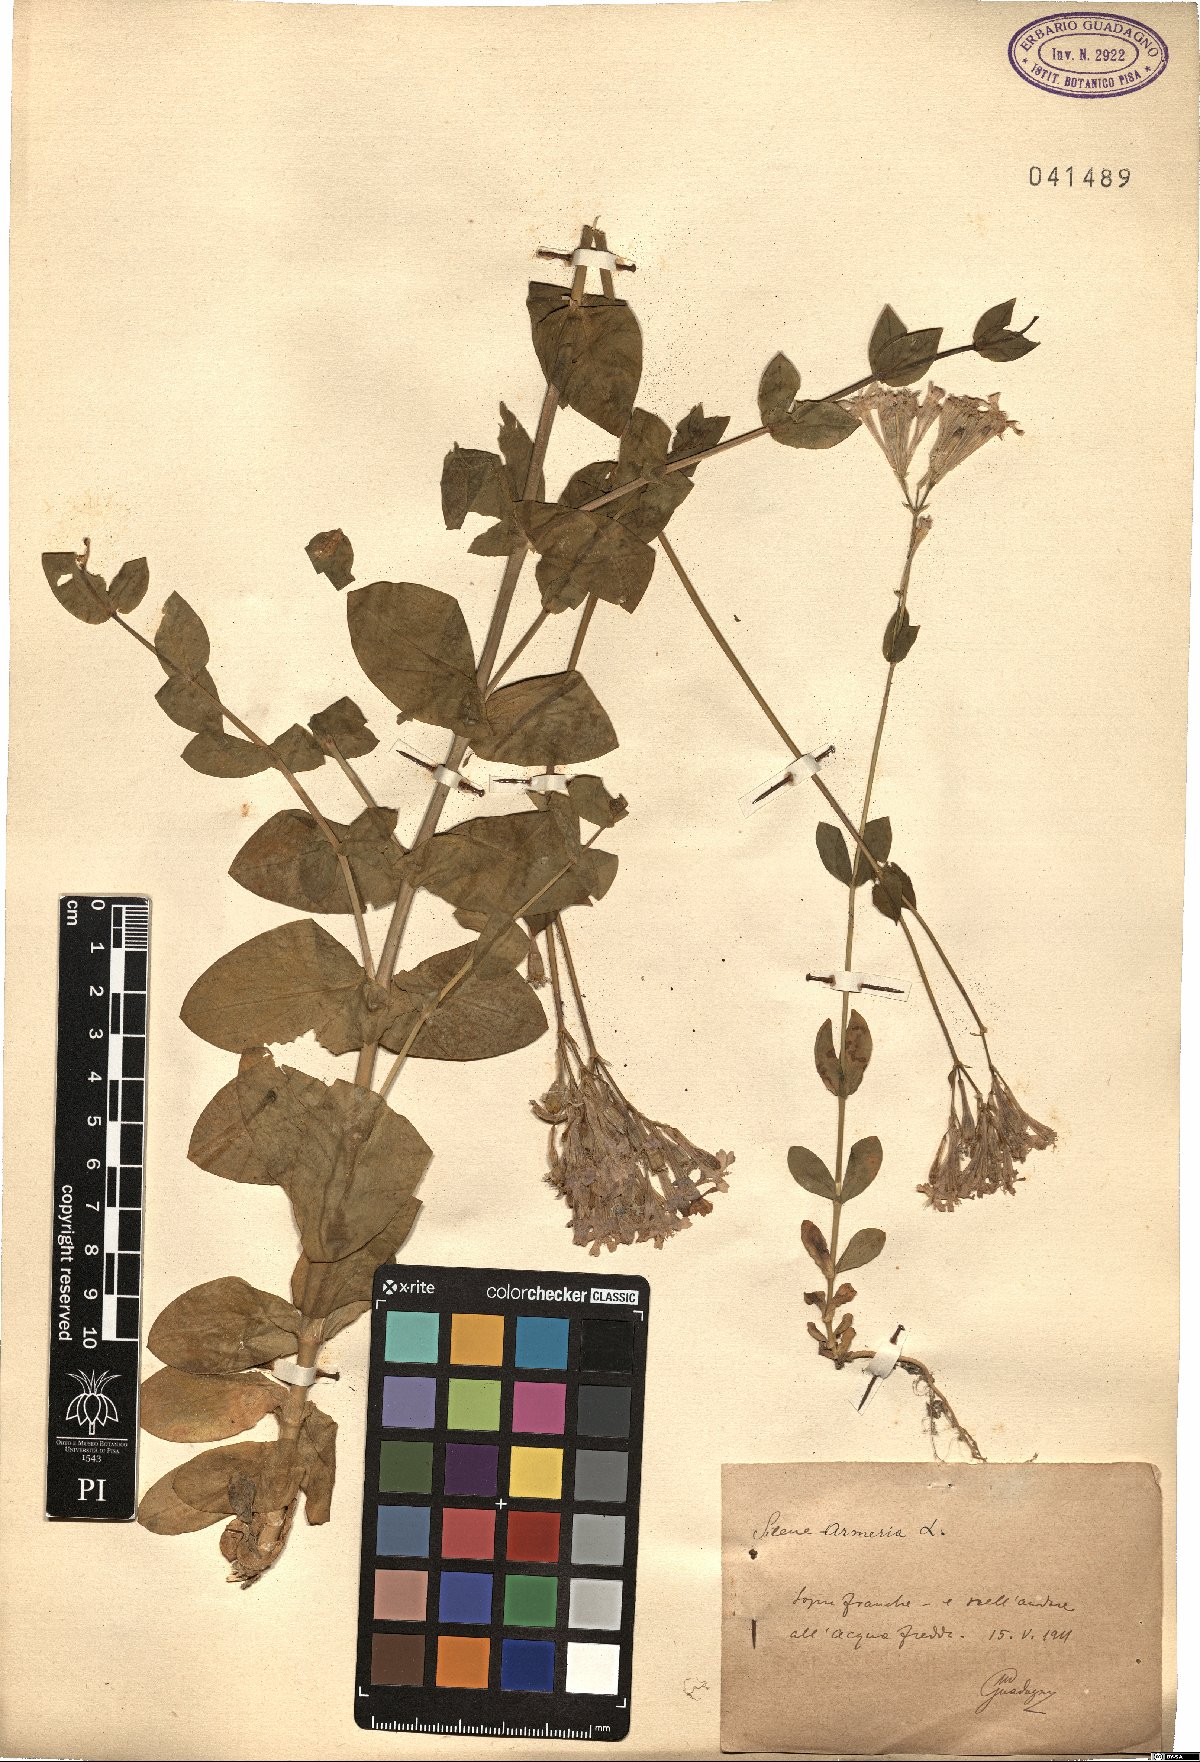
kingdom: Plantae
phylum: Tracheophyta
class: Magnoliopsida
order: Caryophyllales
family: Caryophyllaceae
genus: Atocion
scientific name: Atocion armeria
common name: Sweet william catchfly
